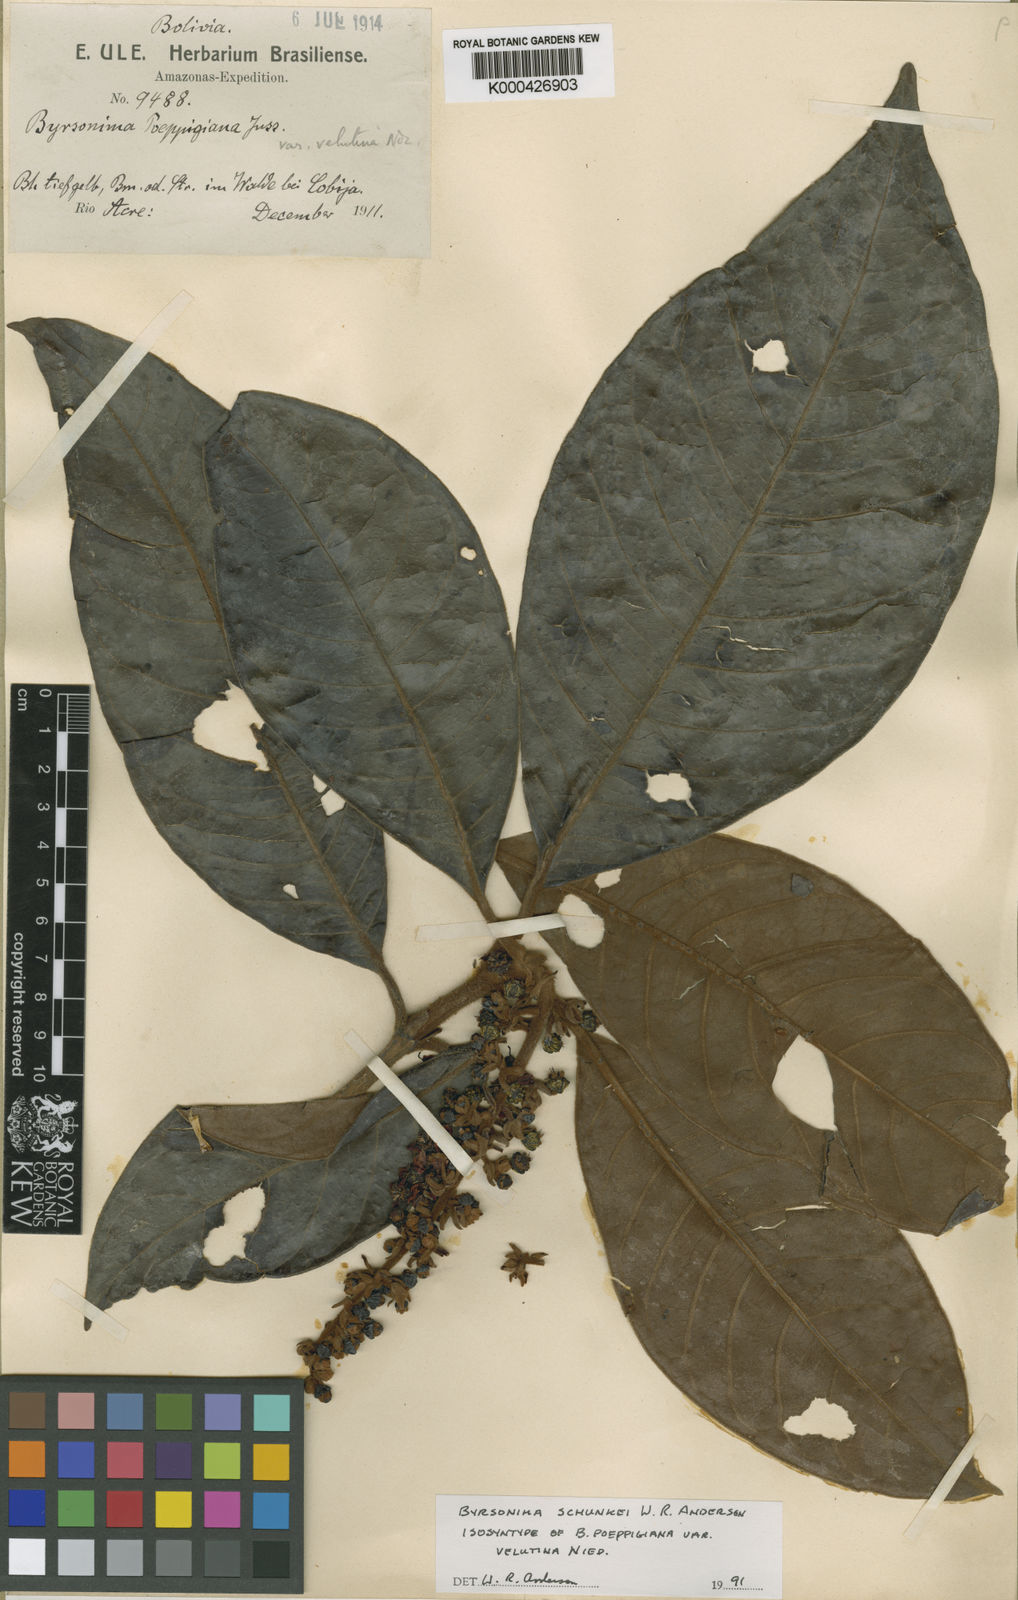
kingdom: Plantae
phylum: Tracheophyta
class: Magnoliopsida
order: Malpighiales
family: Malpighiaceae
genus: Byrsonima
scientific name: Byrsonima schunkei
